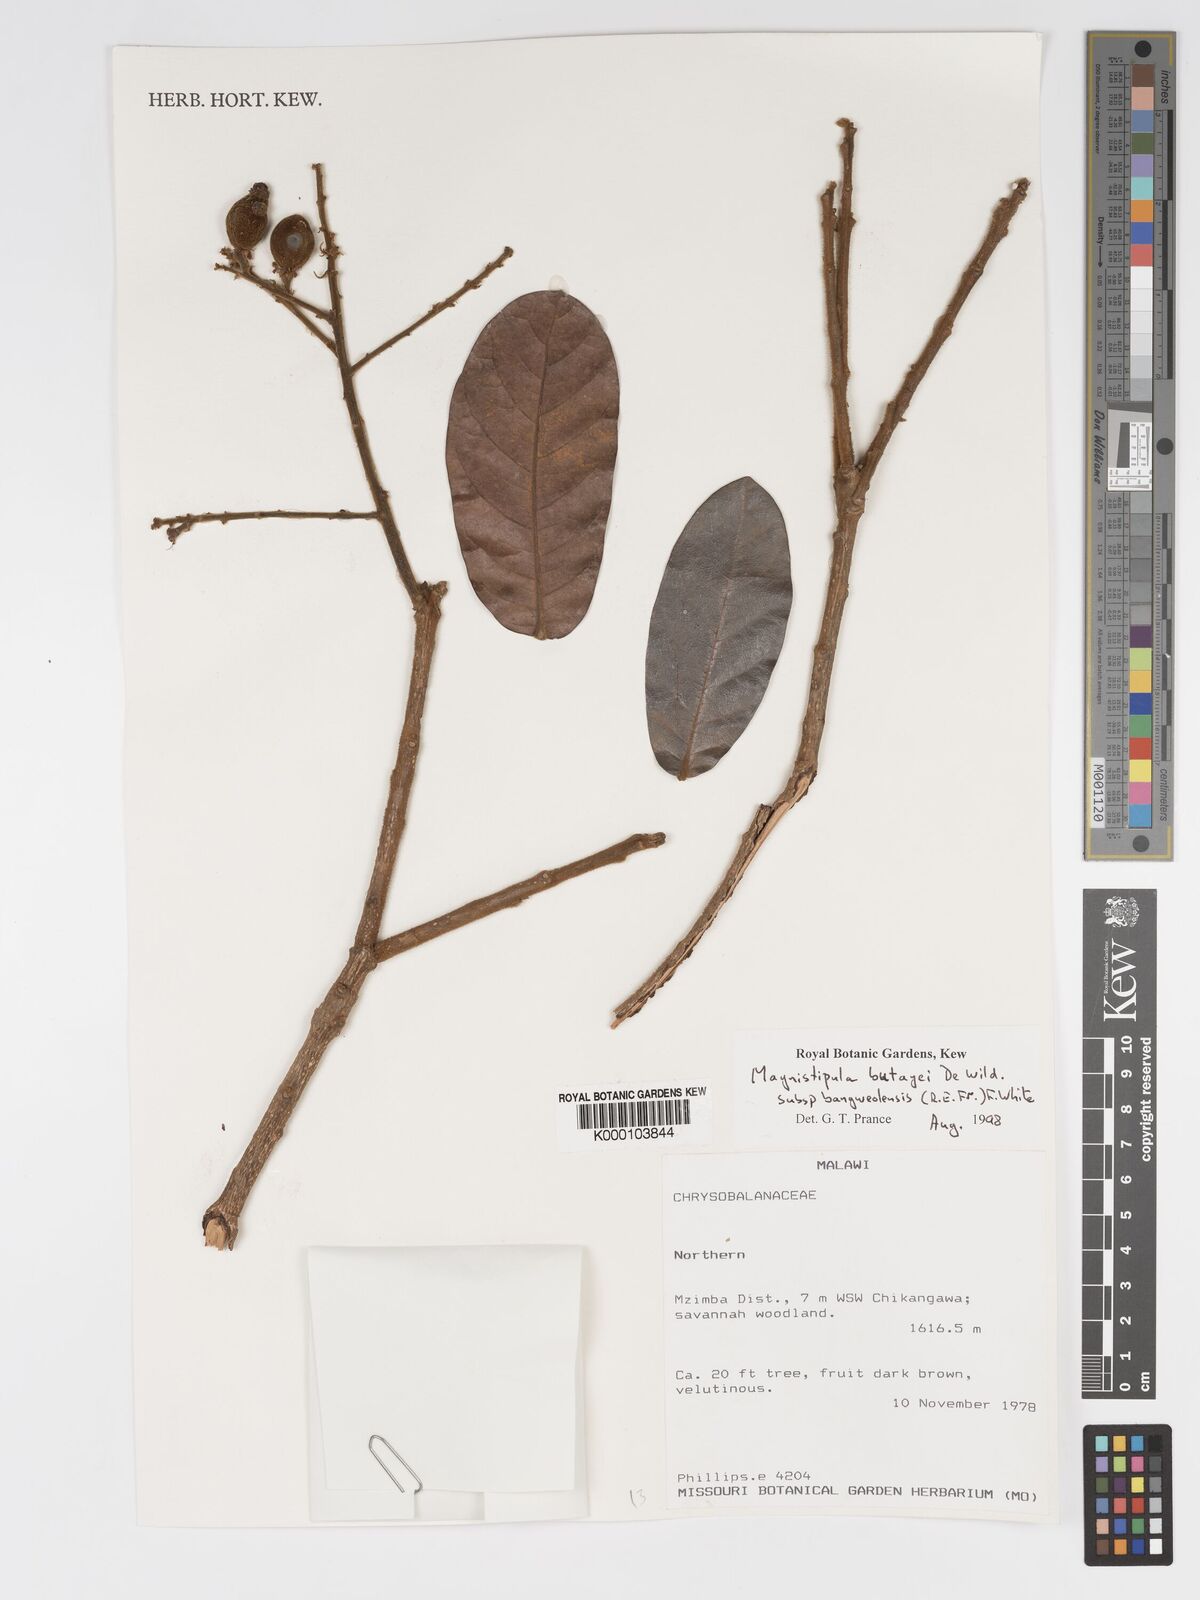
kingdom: Plantae
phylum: Tracheophyta
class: Magnoliopsida
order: Malpighiales
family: Chrysobalanaceae
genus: Magnistipula
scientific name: Magnistipula butayei
